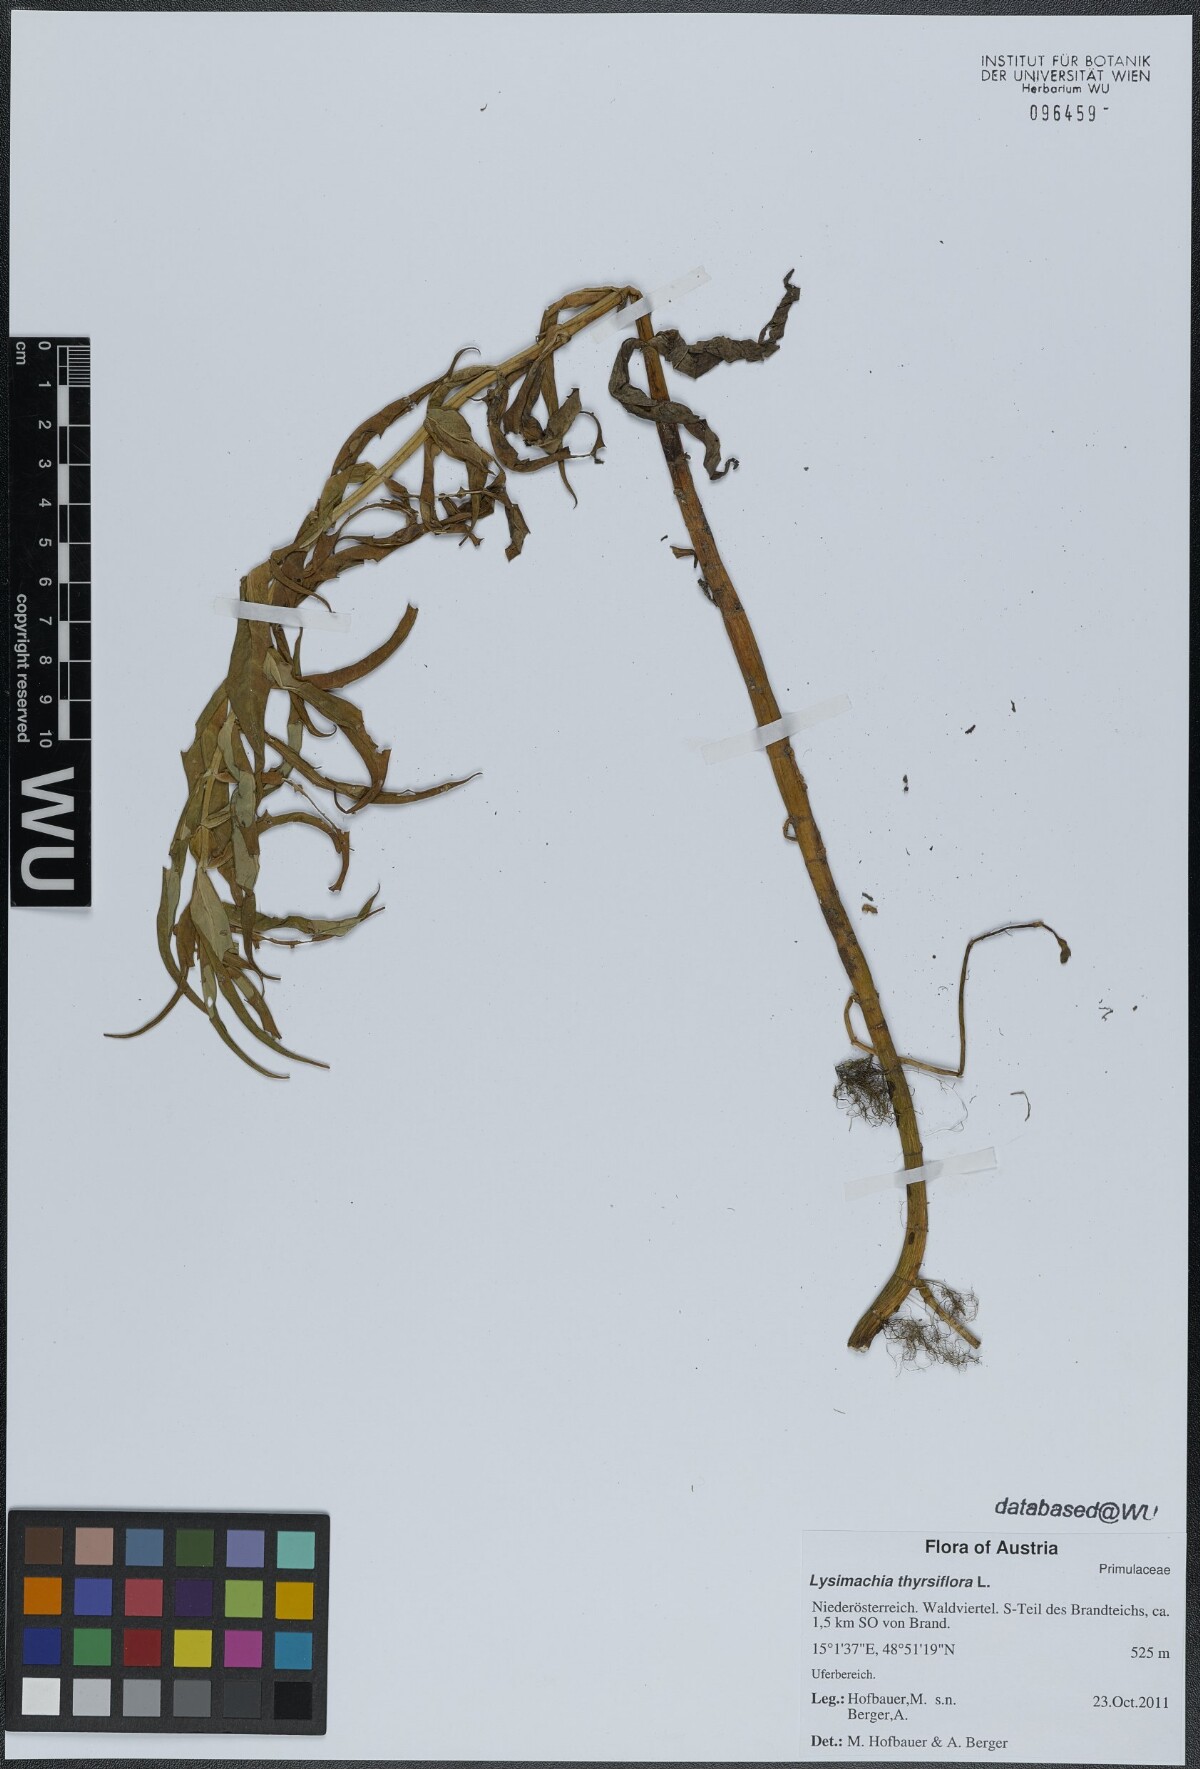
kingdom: Plantae
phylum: Tracheophyta
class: Magnoliopsida
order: Ericales
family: Primulaceae
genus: Lysimachia
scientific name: Lysimachia thyrsiflora
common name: Tufted loosestrife
